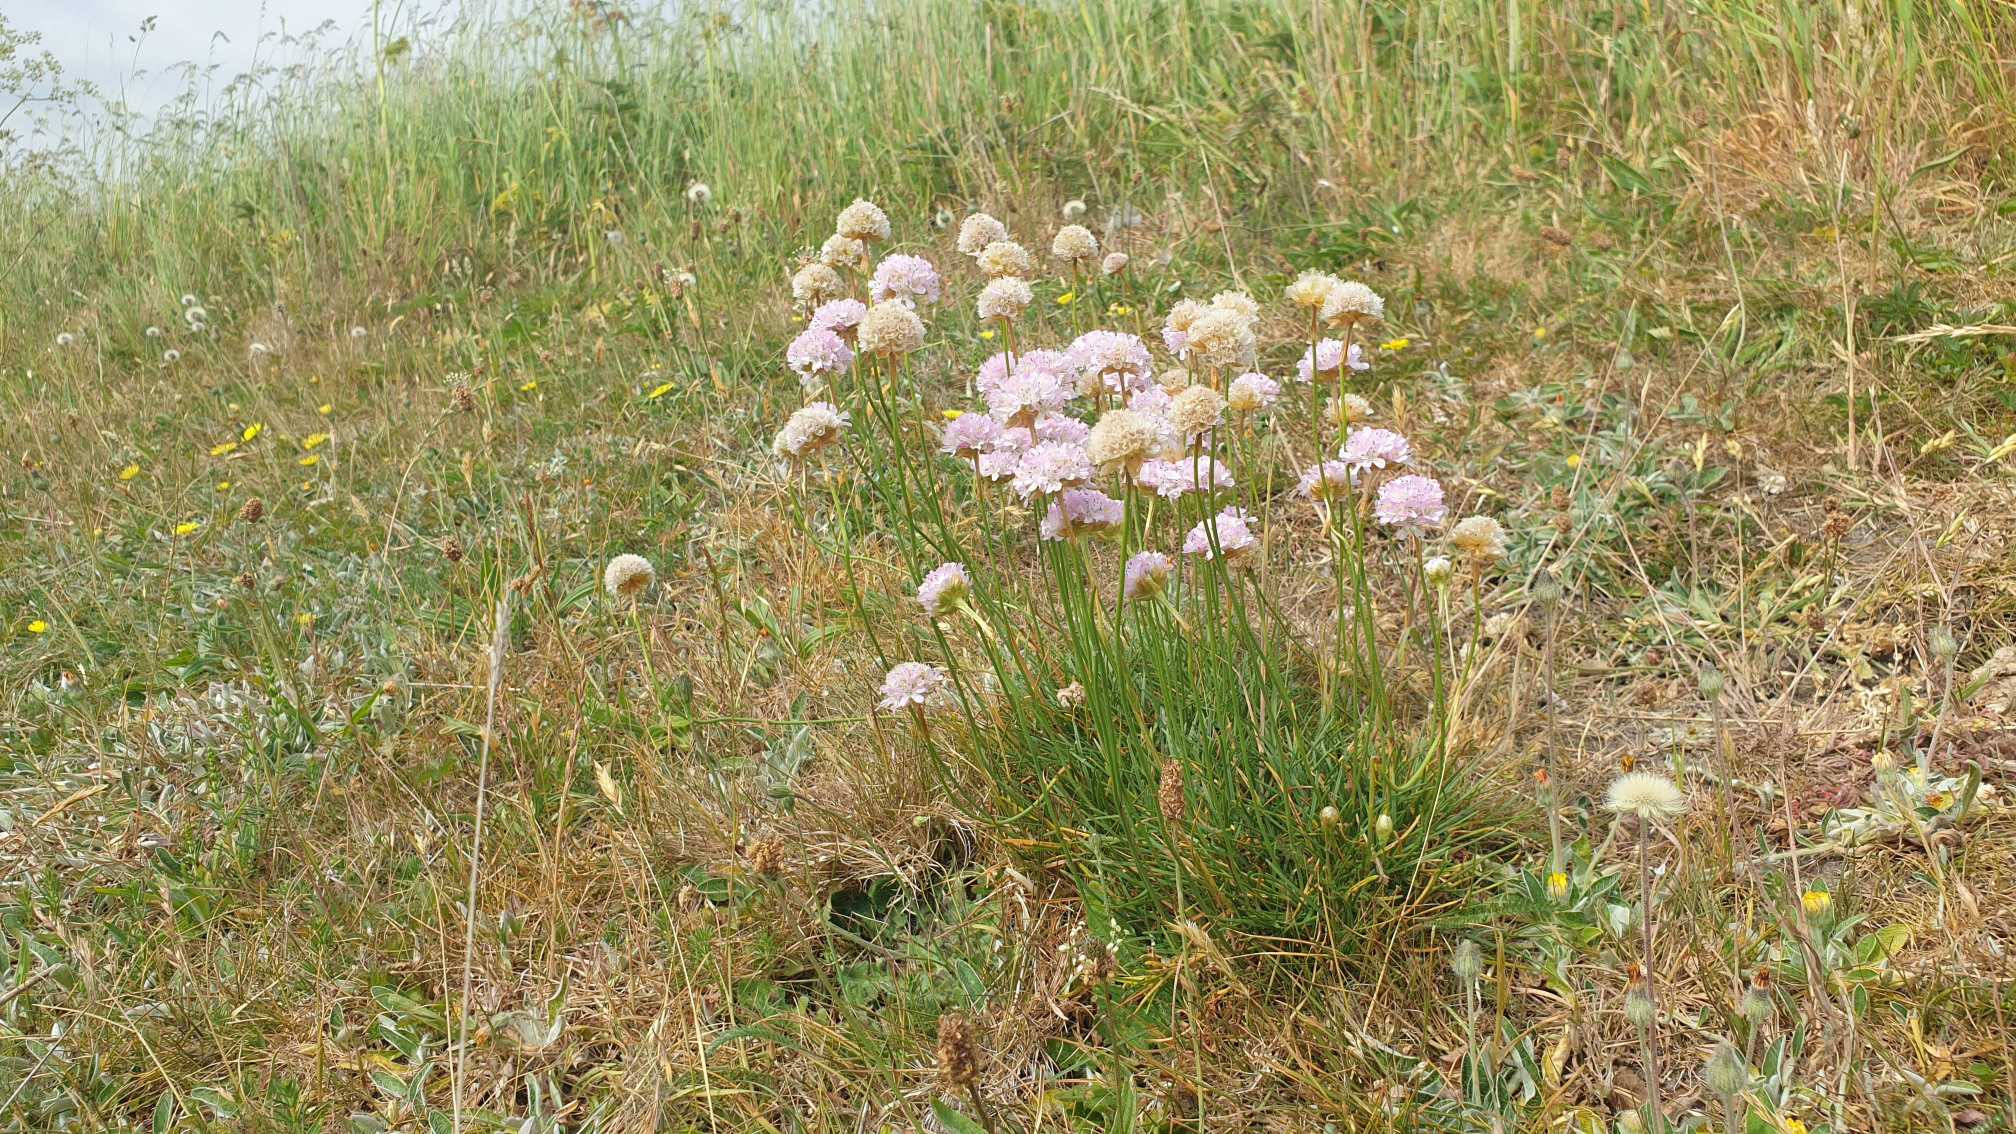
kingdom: Plantae
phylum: Tracheophyta
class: Magnoliopsida
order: Caryophyllales
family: Plumbaginaceae
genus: Armeria
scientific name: Armeria maritima
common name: Engelskgræs
